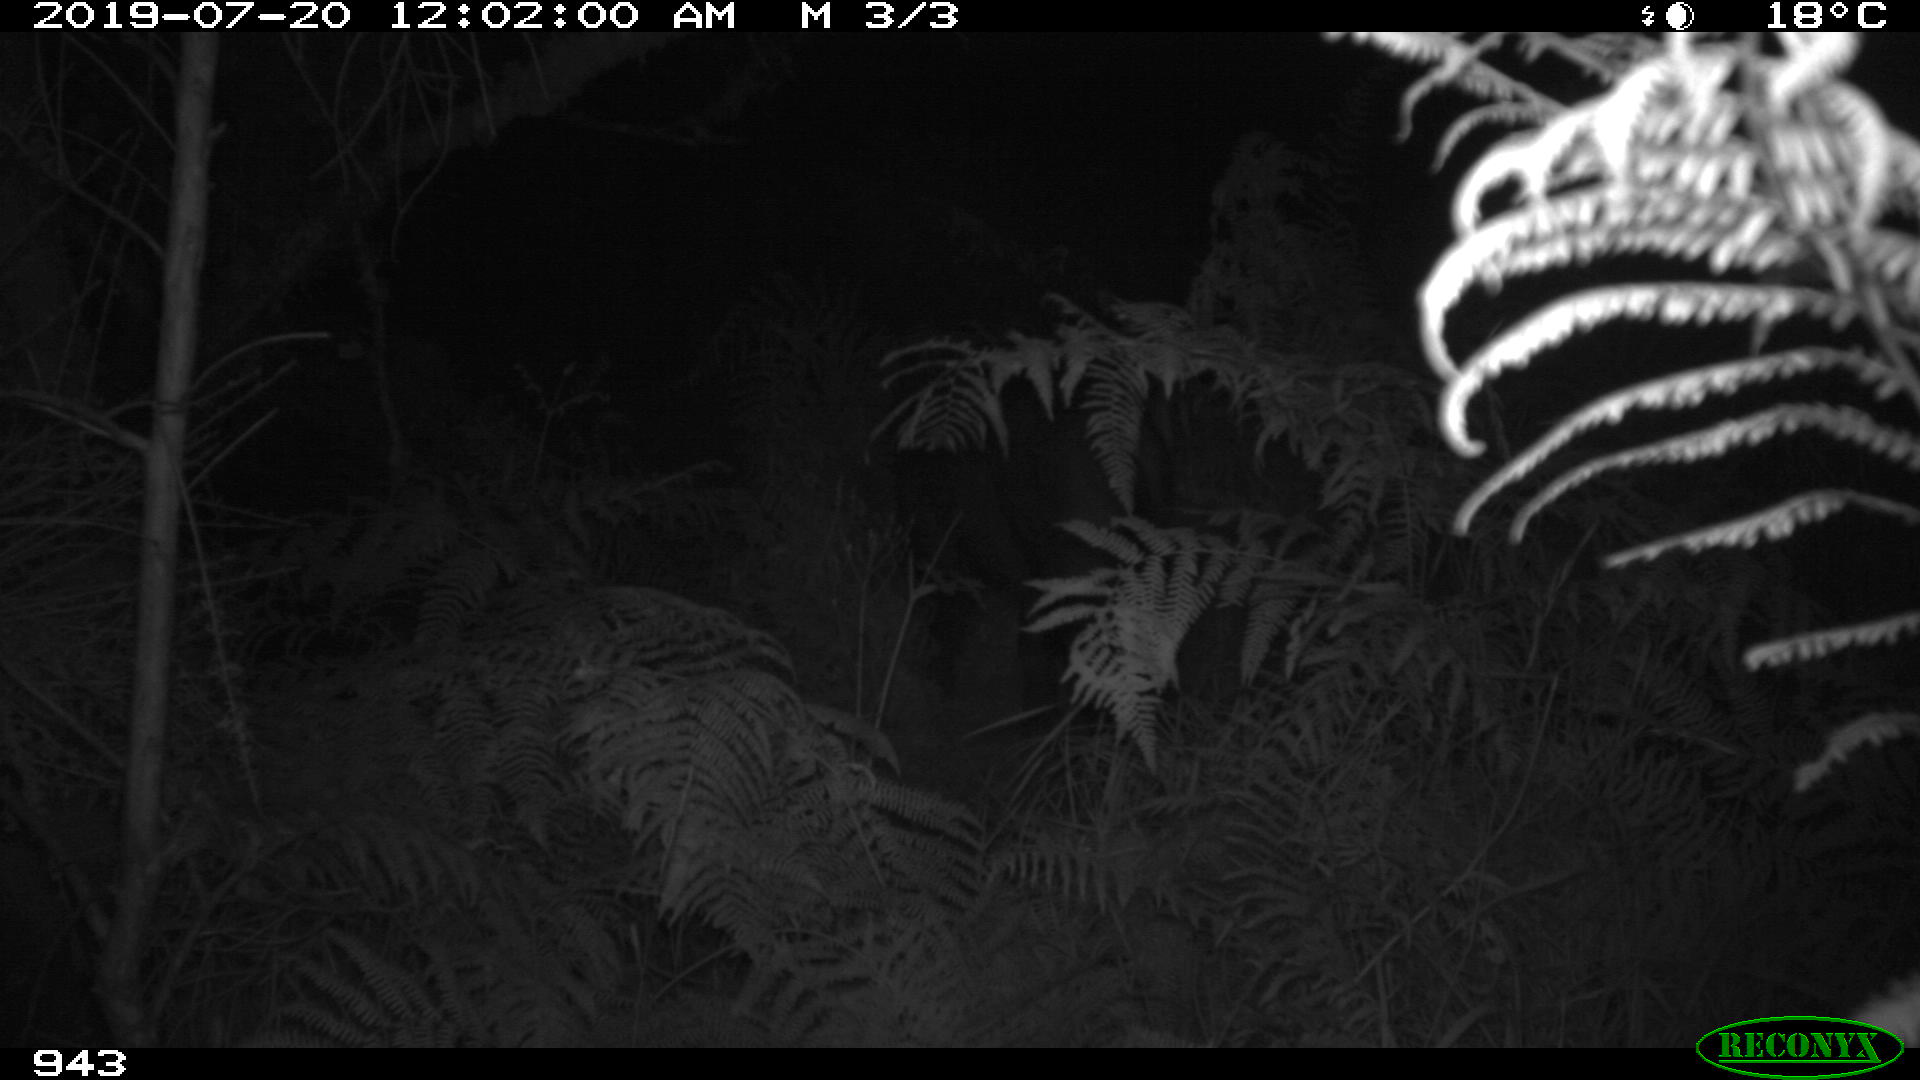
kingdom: Animalia
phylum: Chordata
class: Mammalia
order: Artiodactyla
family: Suidae
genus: Sus
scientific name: Sus scrofa
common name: Wild boar
